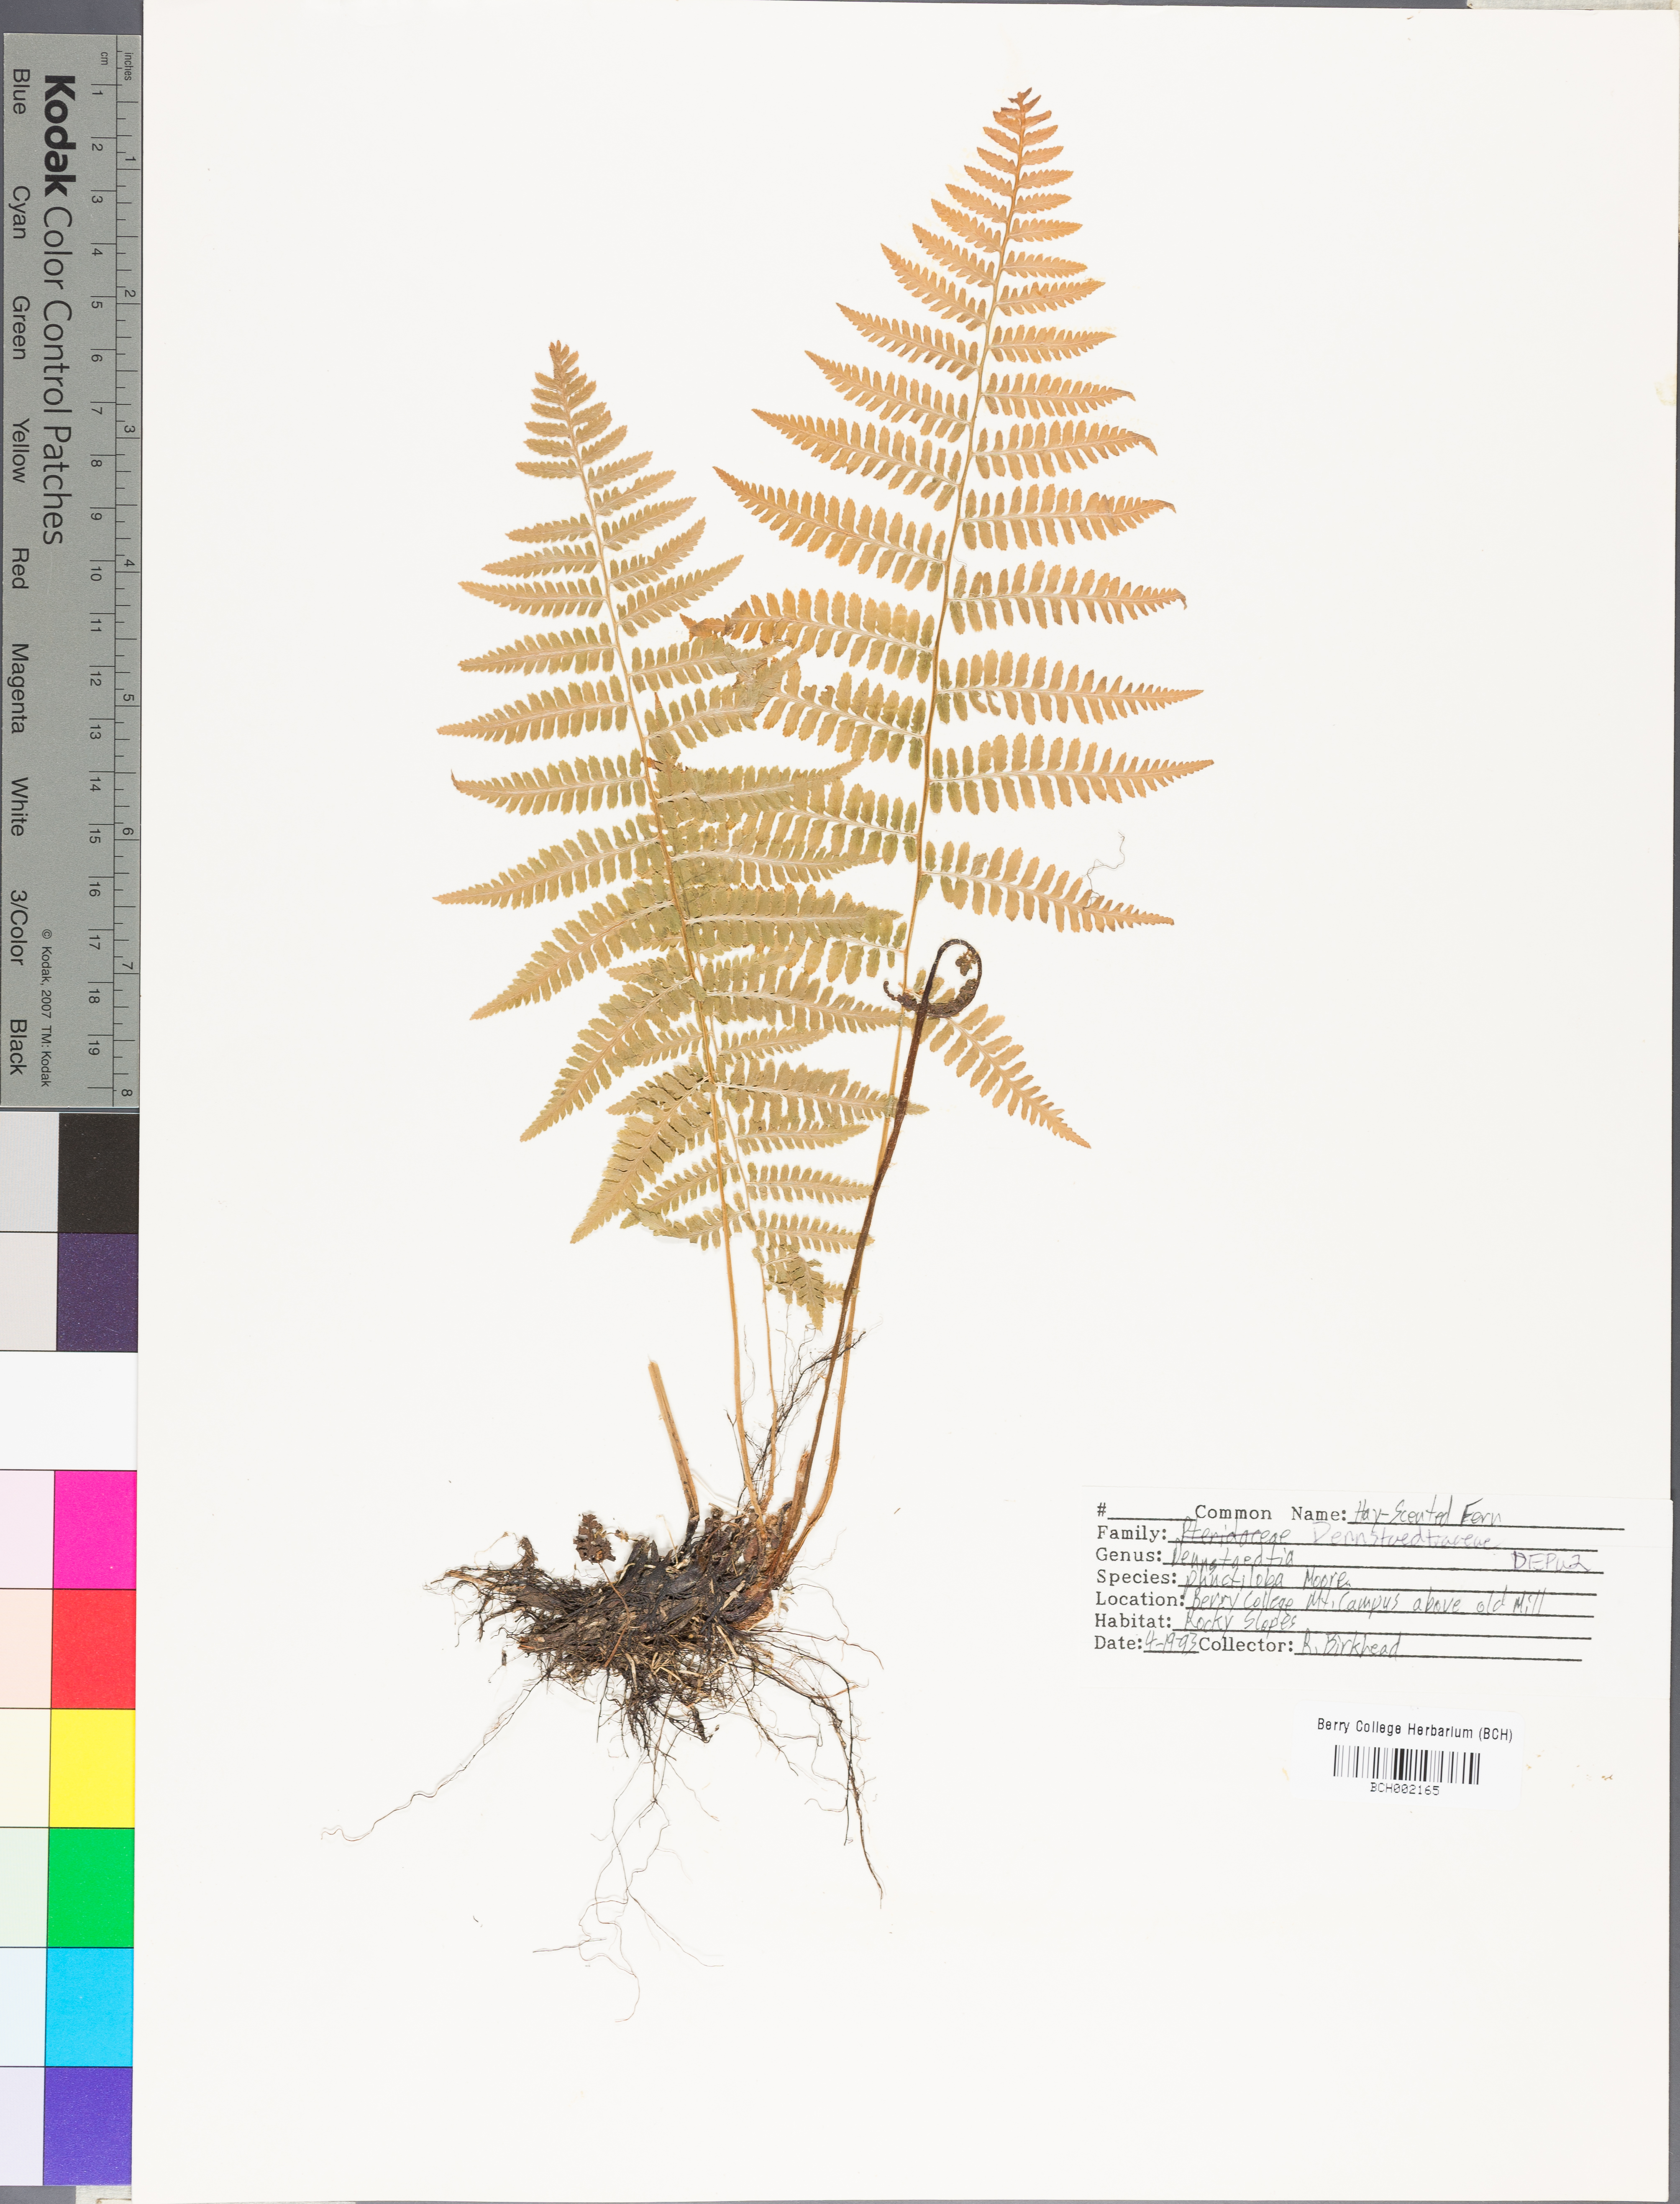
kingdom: Plantae
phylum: Tracheophyta
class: Polypodiopsida
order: Polypodiales
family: Dennstaedtiaceae
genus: Sitobolium
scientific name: Sitobolium punctilobum
